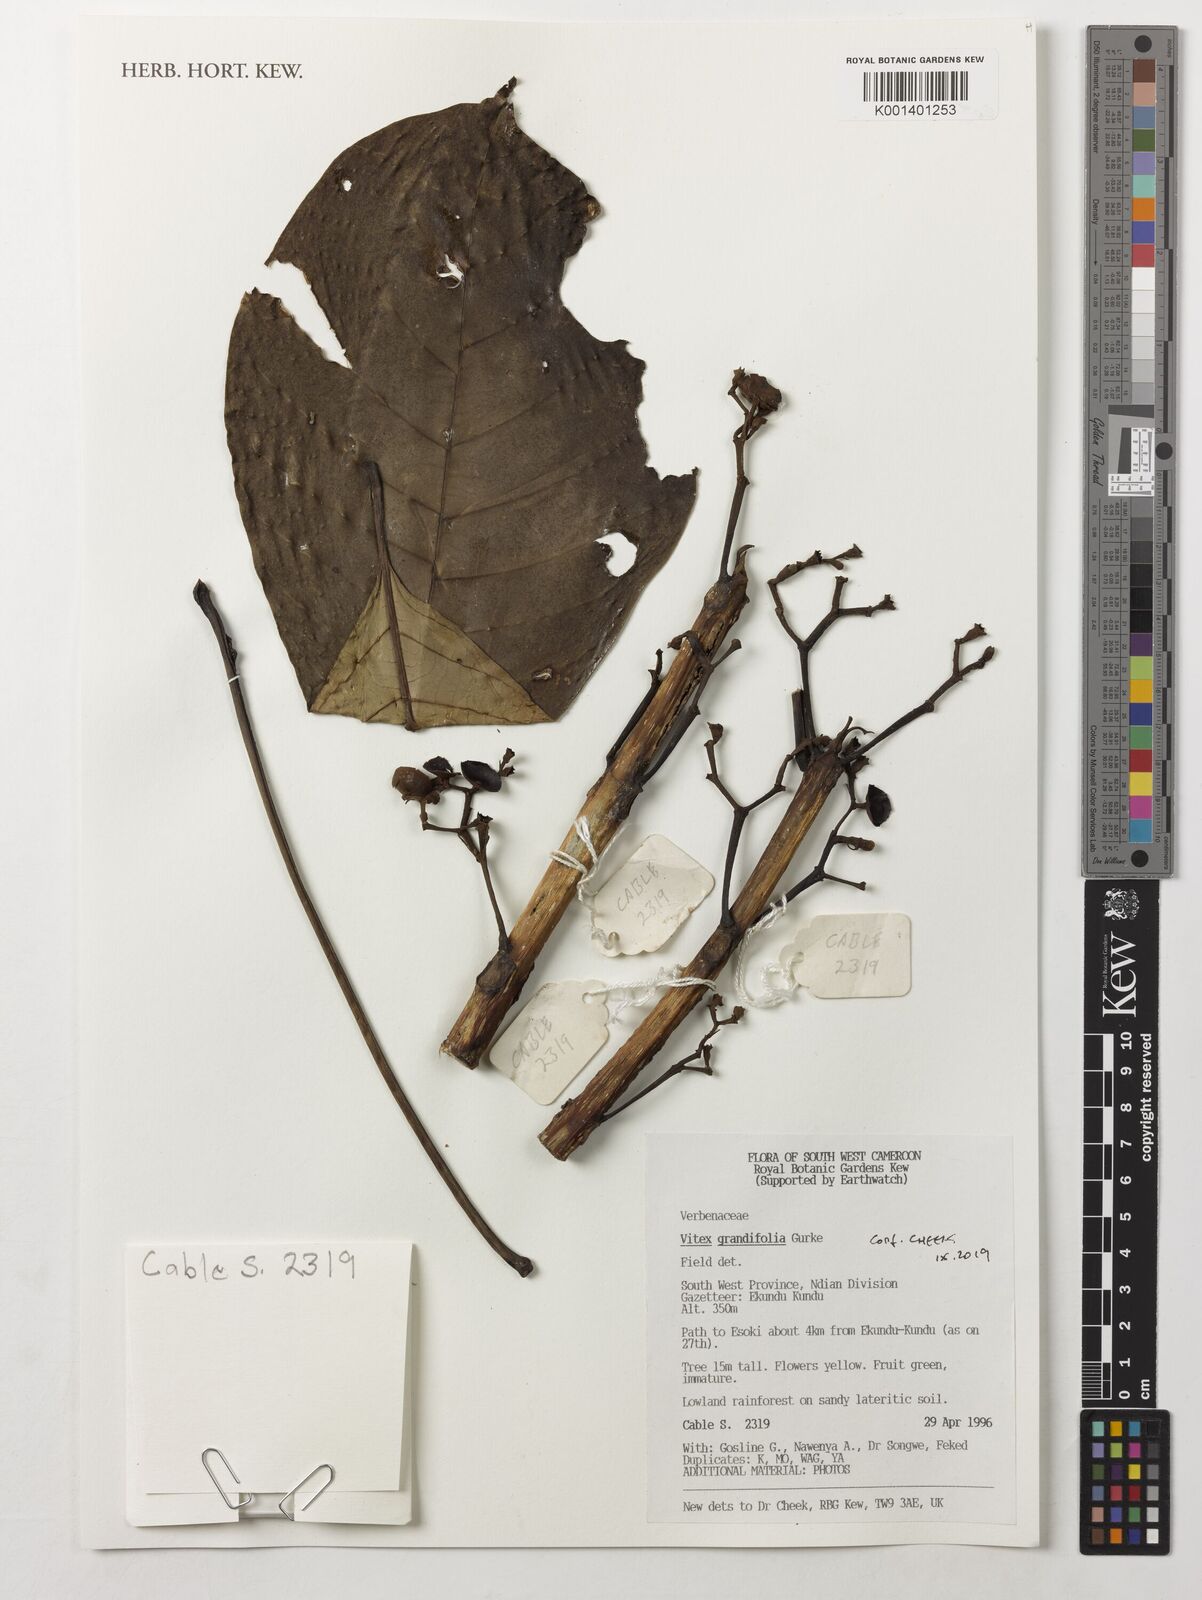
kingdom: Plantae
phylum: Tracheophyta
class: Magnoliopsida
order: Lamiales
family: Lamiaceae
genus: Vitex
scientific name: Vitex grandifolia
